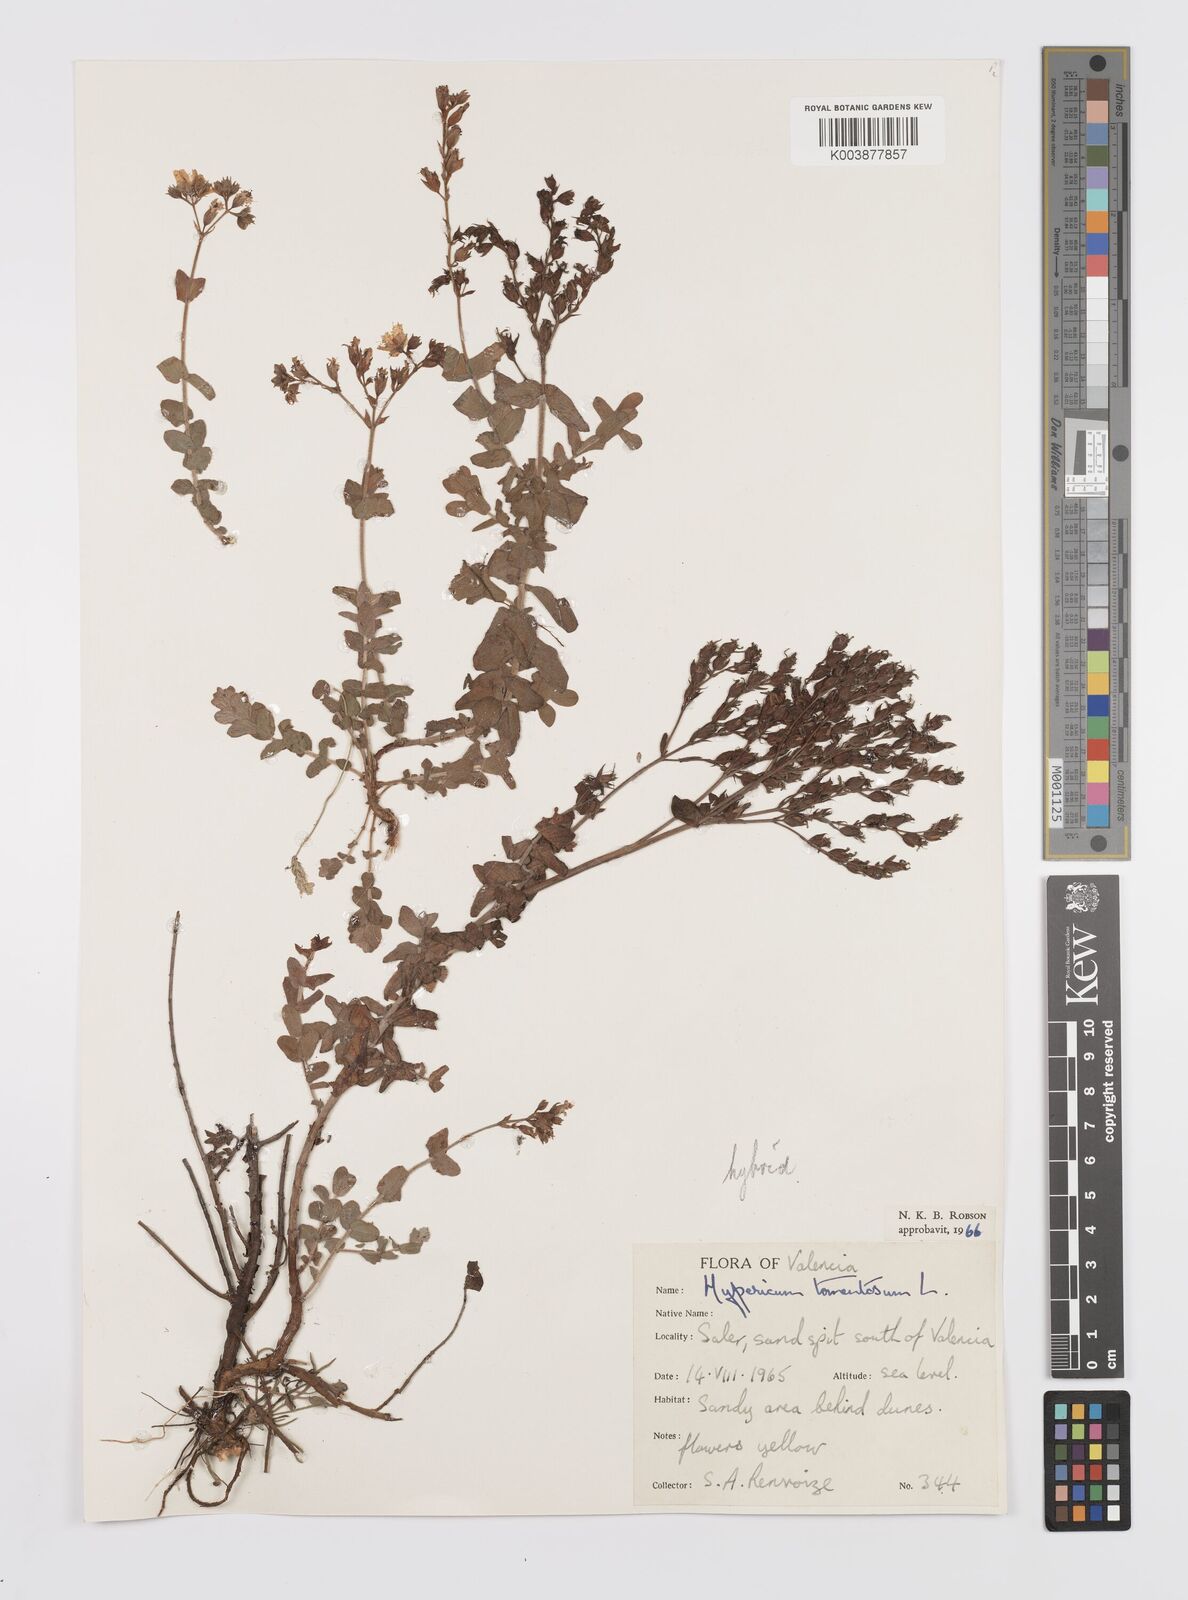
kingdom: Plantae
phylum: Tracheophyta
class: Magnoliopsida
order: Malpighiales
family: Hypericaceae
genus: Hypericum
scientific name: Hypericum tomentosum
